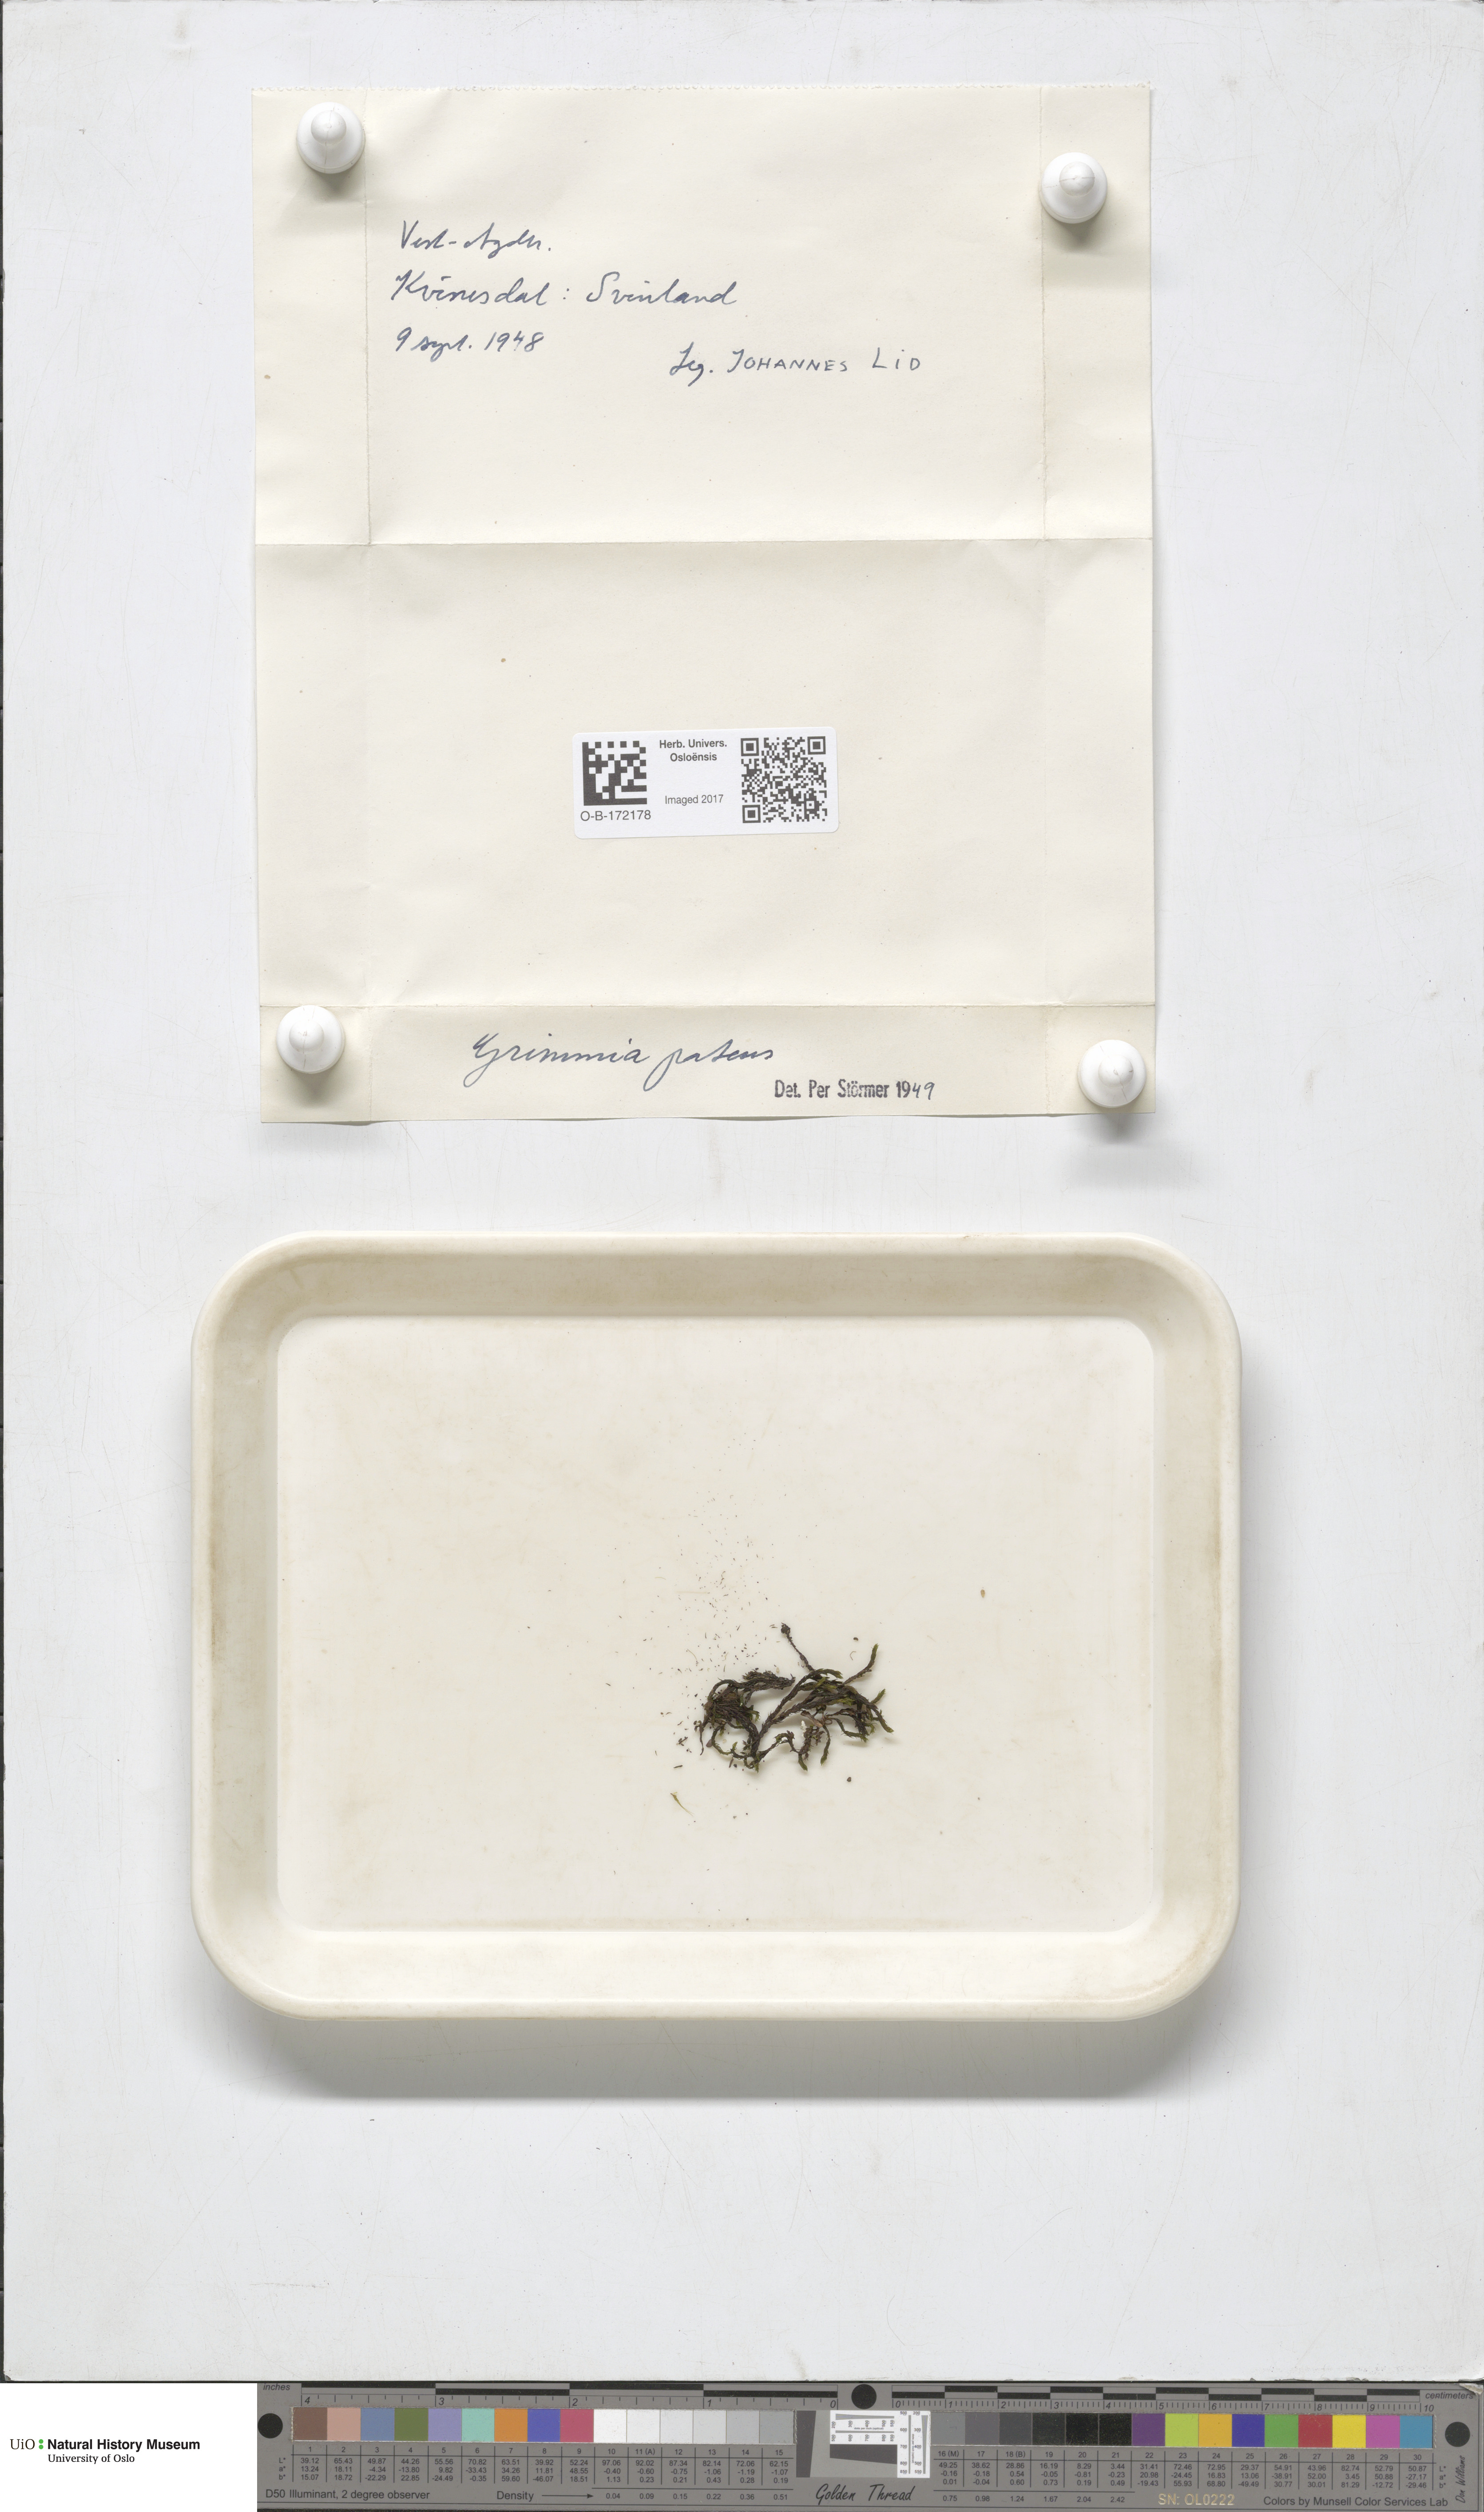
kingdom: Plantae
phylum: Bryophyta
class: Bryopsida
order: Grimmiales
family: Grimmiaceae
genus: Grimmia
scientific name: Grimmia ramondii
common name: Spreading-leaved grimmia
